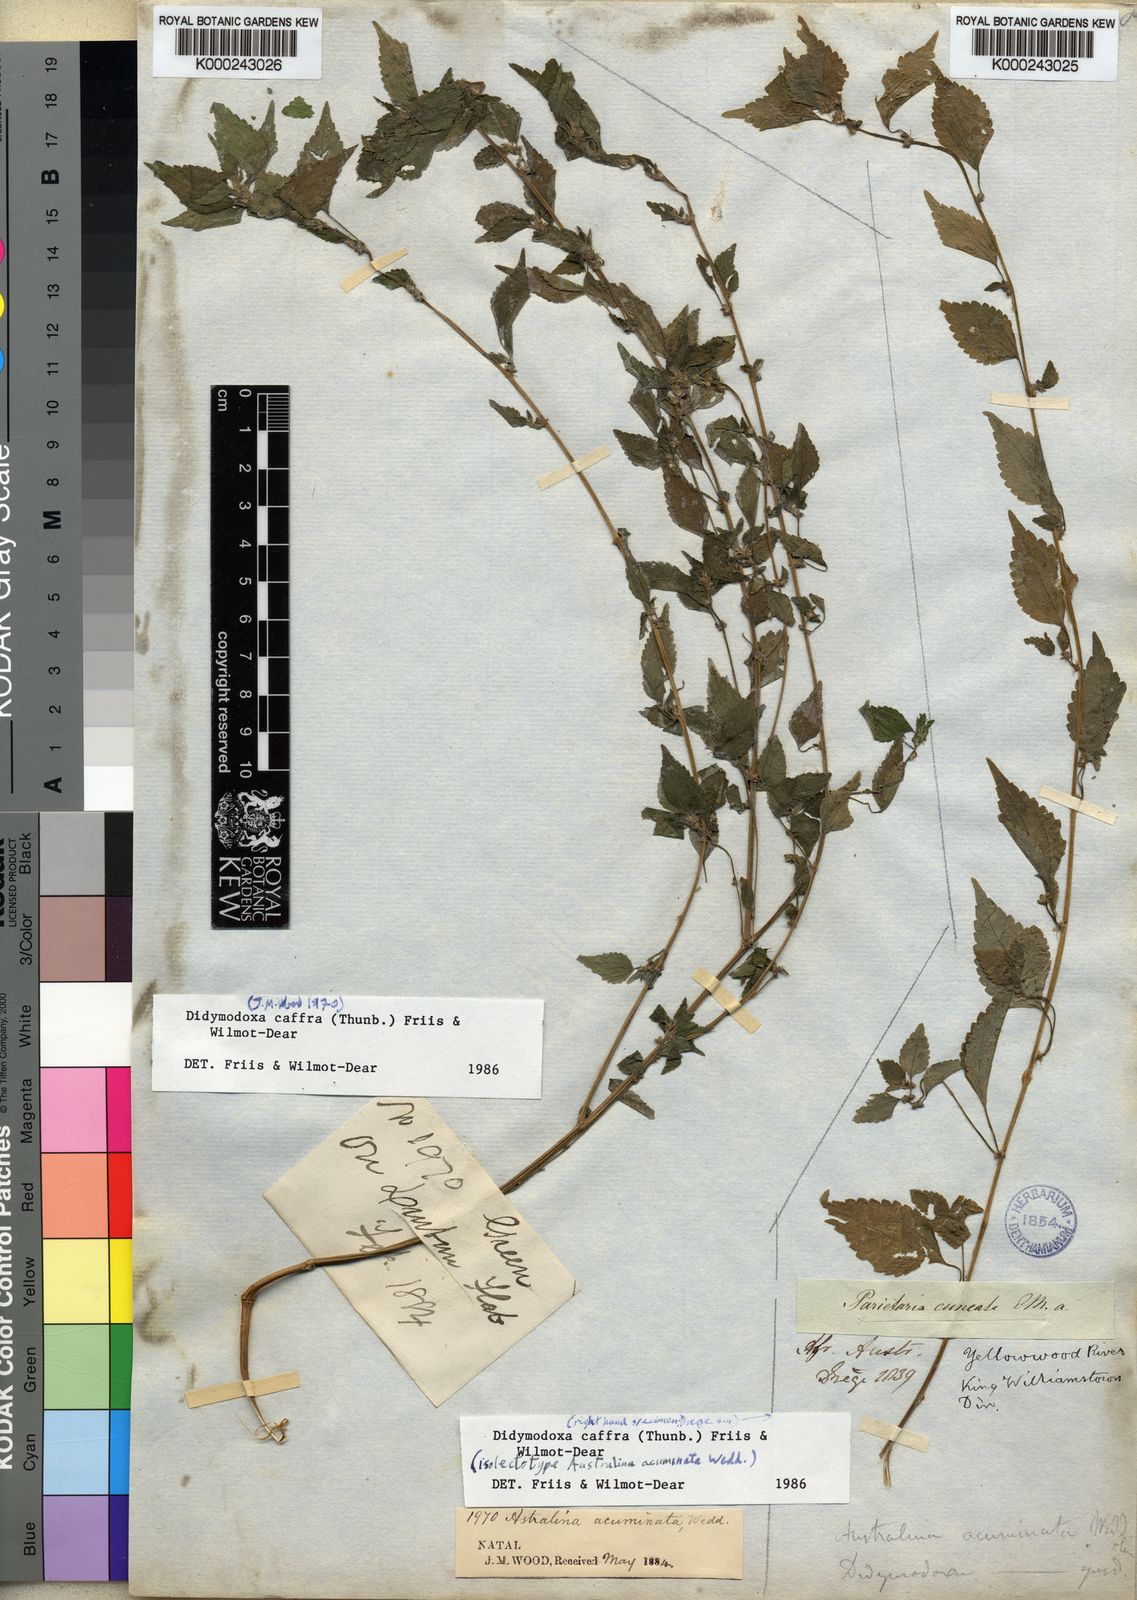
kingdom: Plantae
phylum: Tracheophyta
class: Magnoliopsida
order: Rosales
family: Urticaceae
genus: Didymodoxa
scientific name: Didymodoxa caffra
